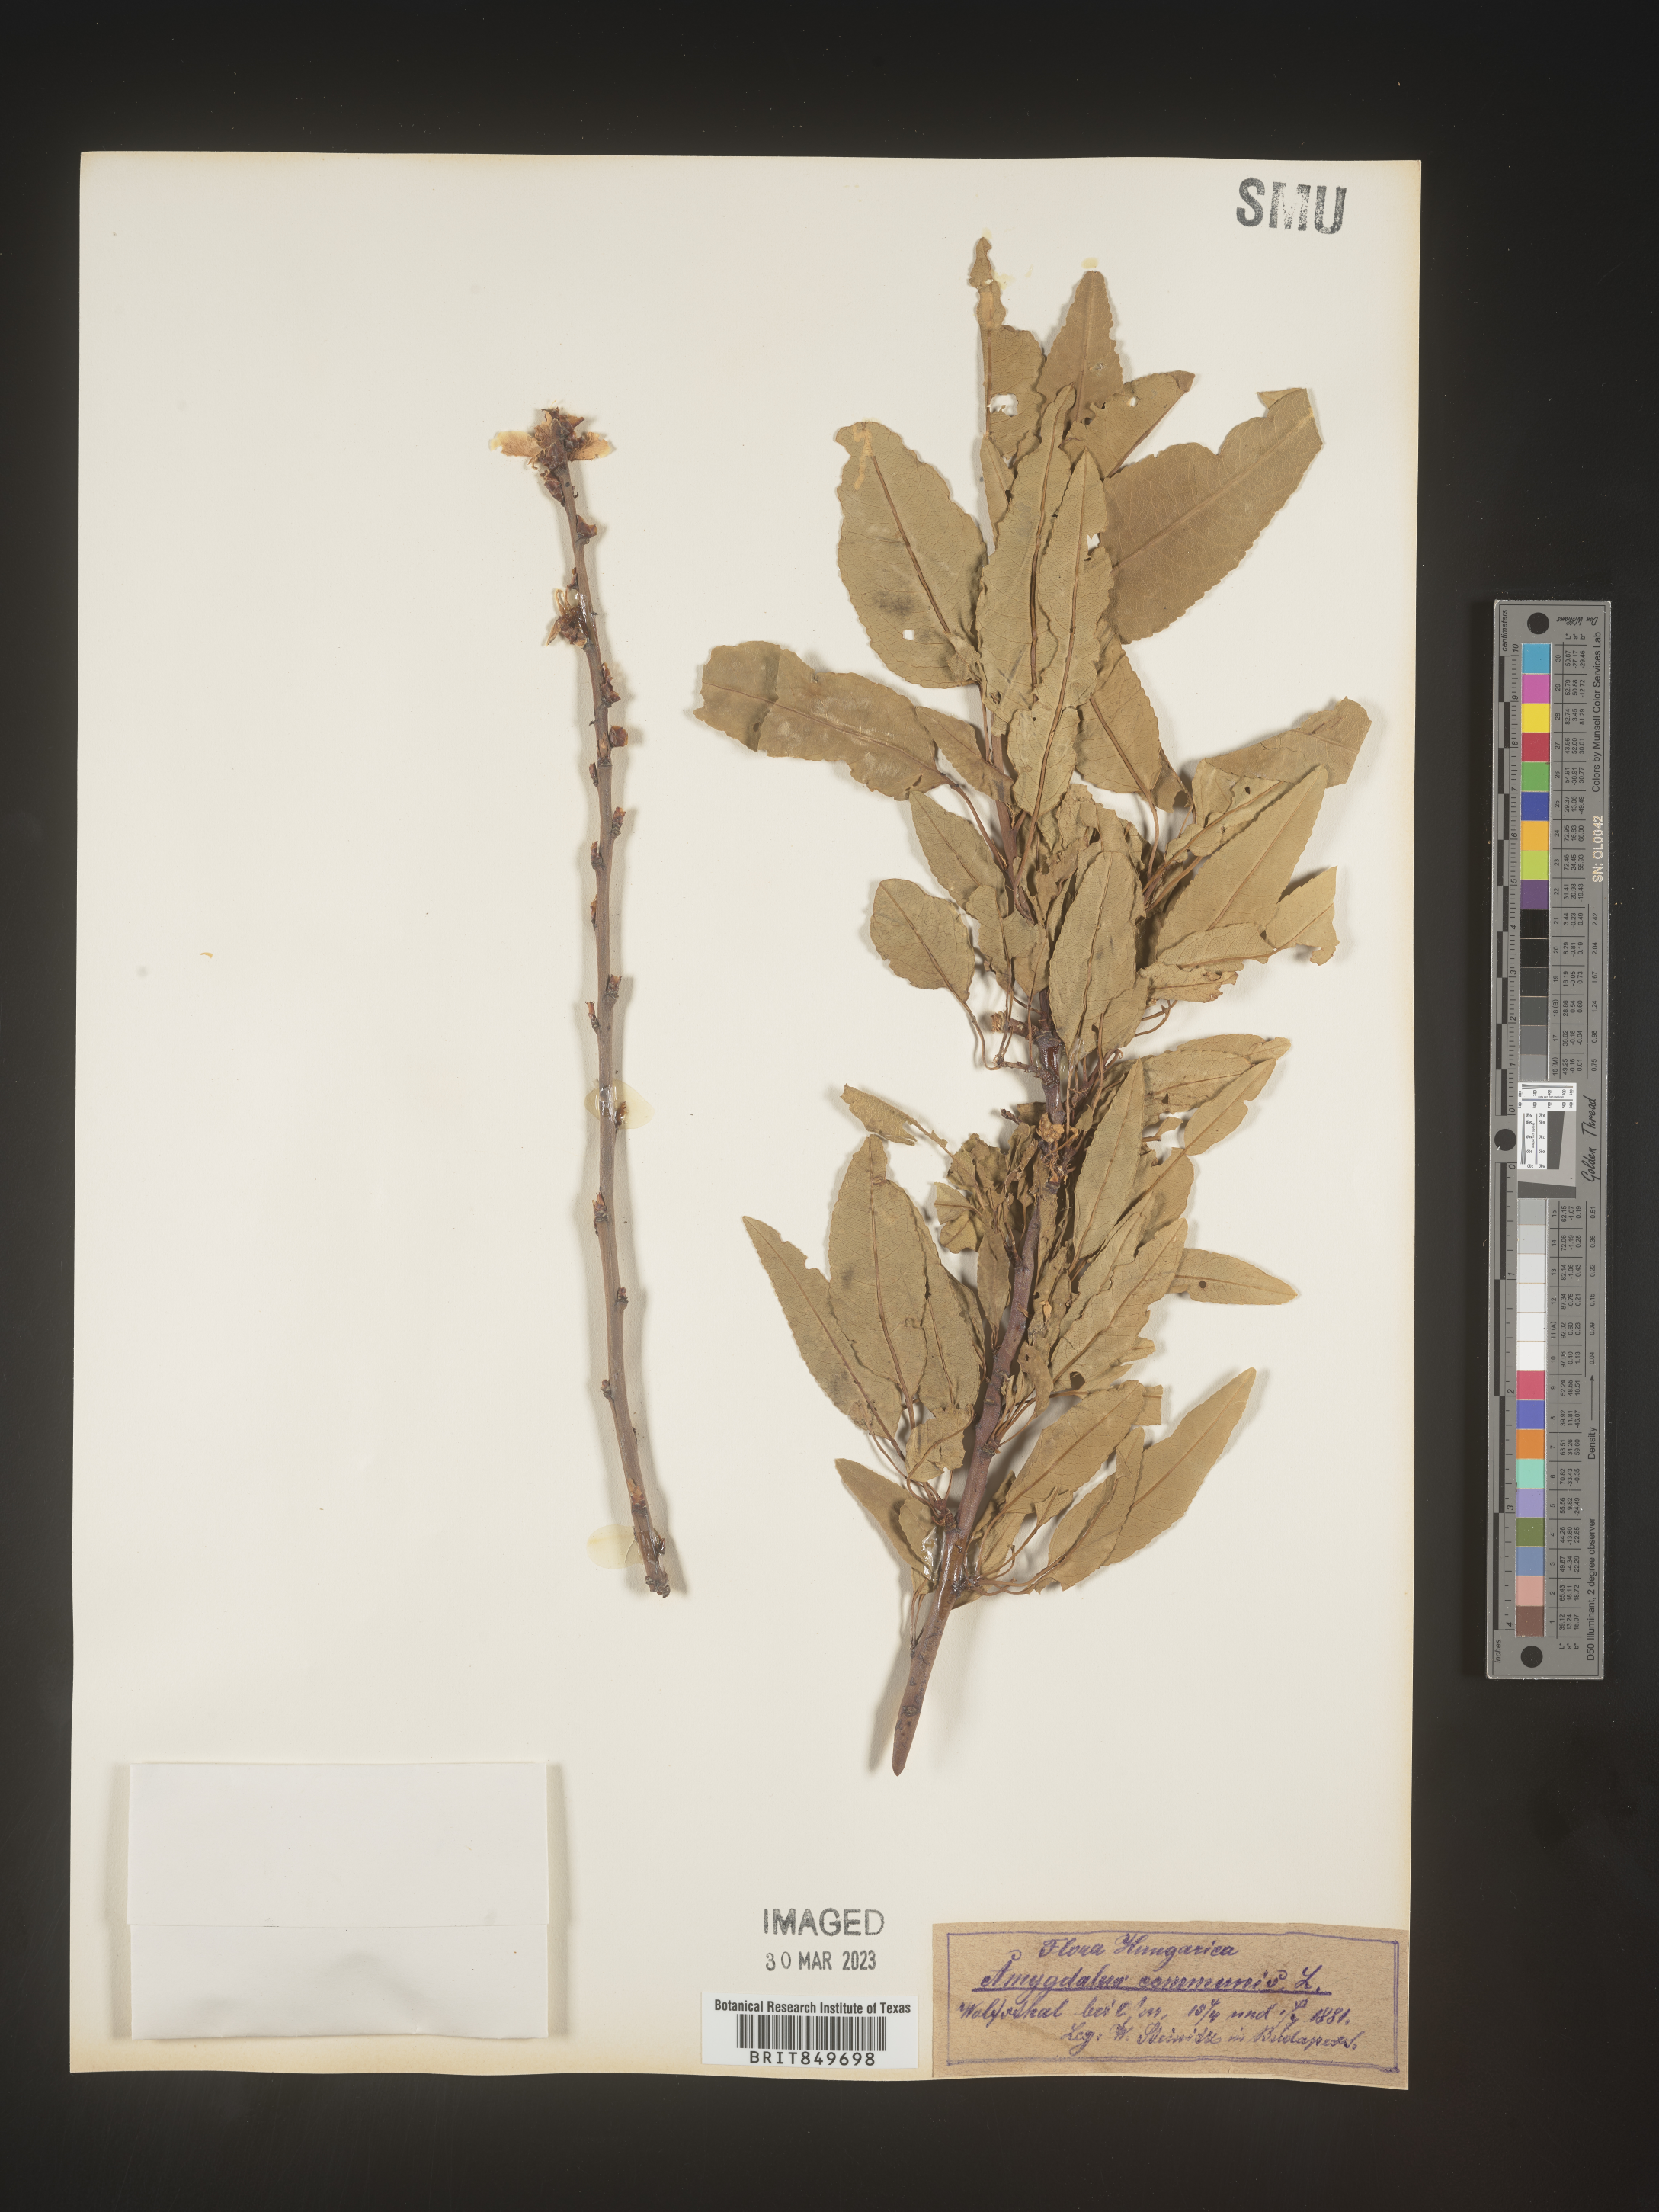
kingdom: Plantae
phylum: Tracheophyta
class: Magnoliopsida
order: Rosales
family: Rosaceae
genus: Prunus
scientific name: Prunus
